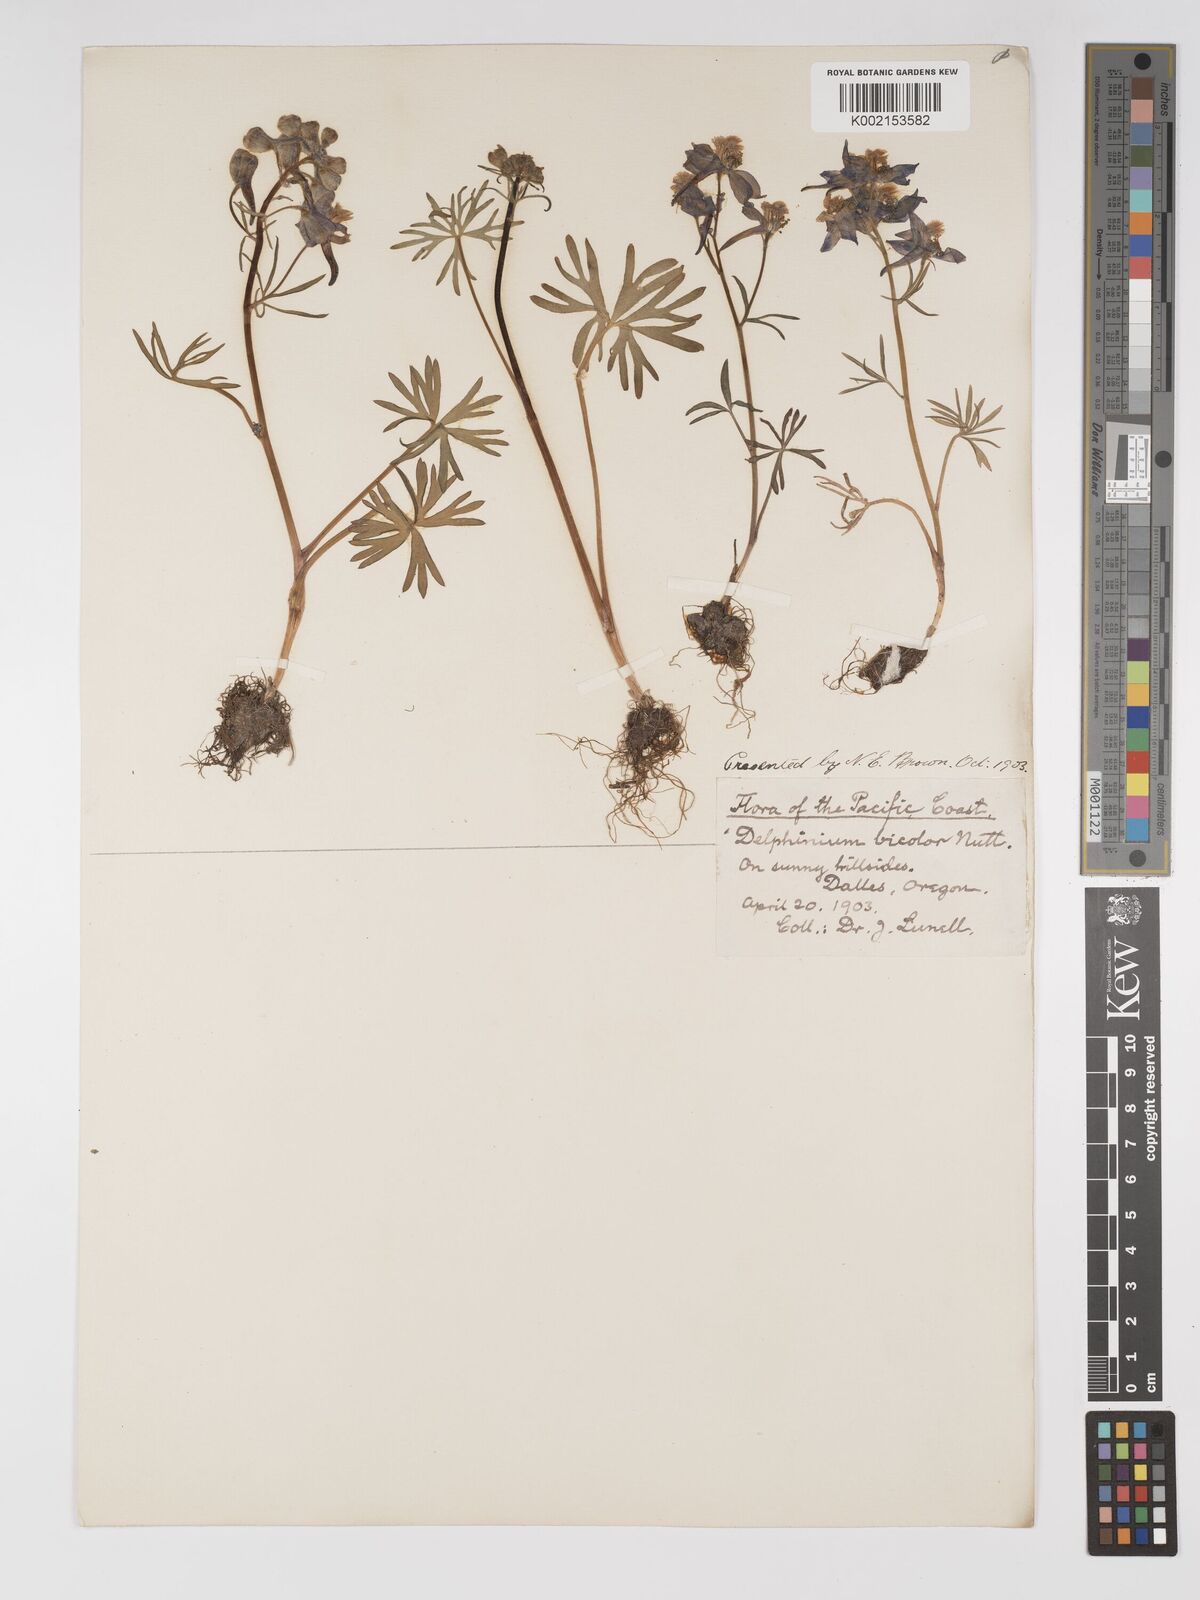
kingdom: Plantae
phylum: Tracheophyta
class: Magnoliopsida
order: Ranunculales
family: Ranunculaceae
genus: Delphinium
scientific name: Delphinium bicolor
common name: Low larkspur
